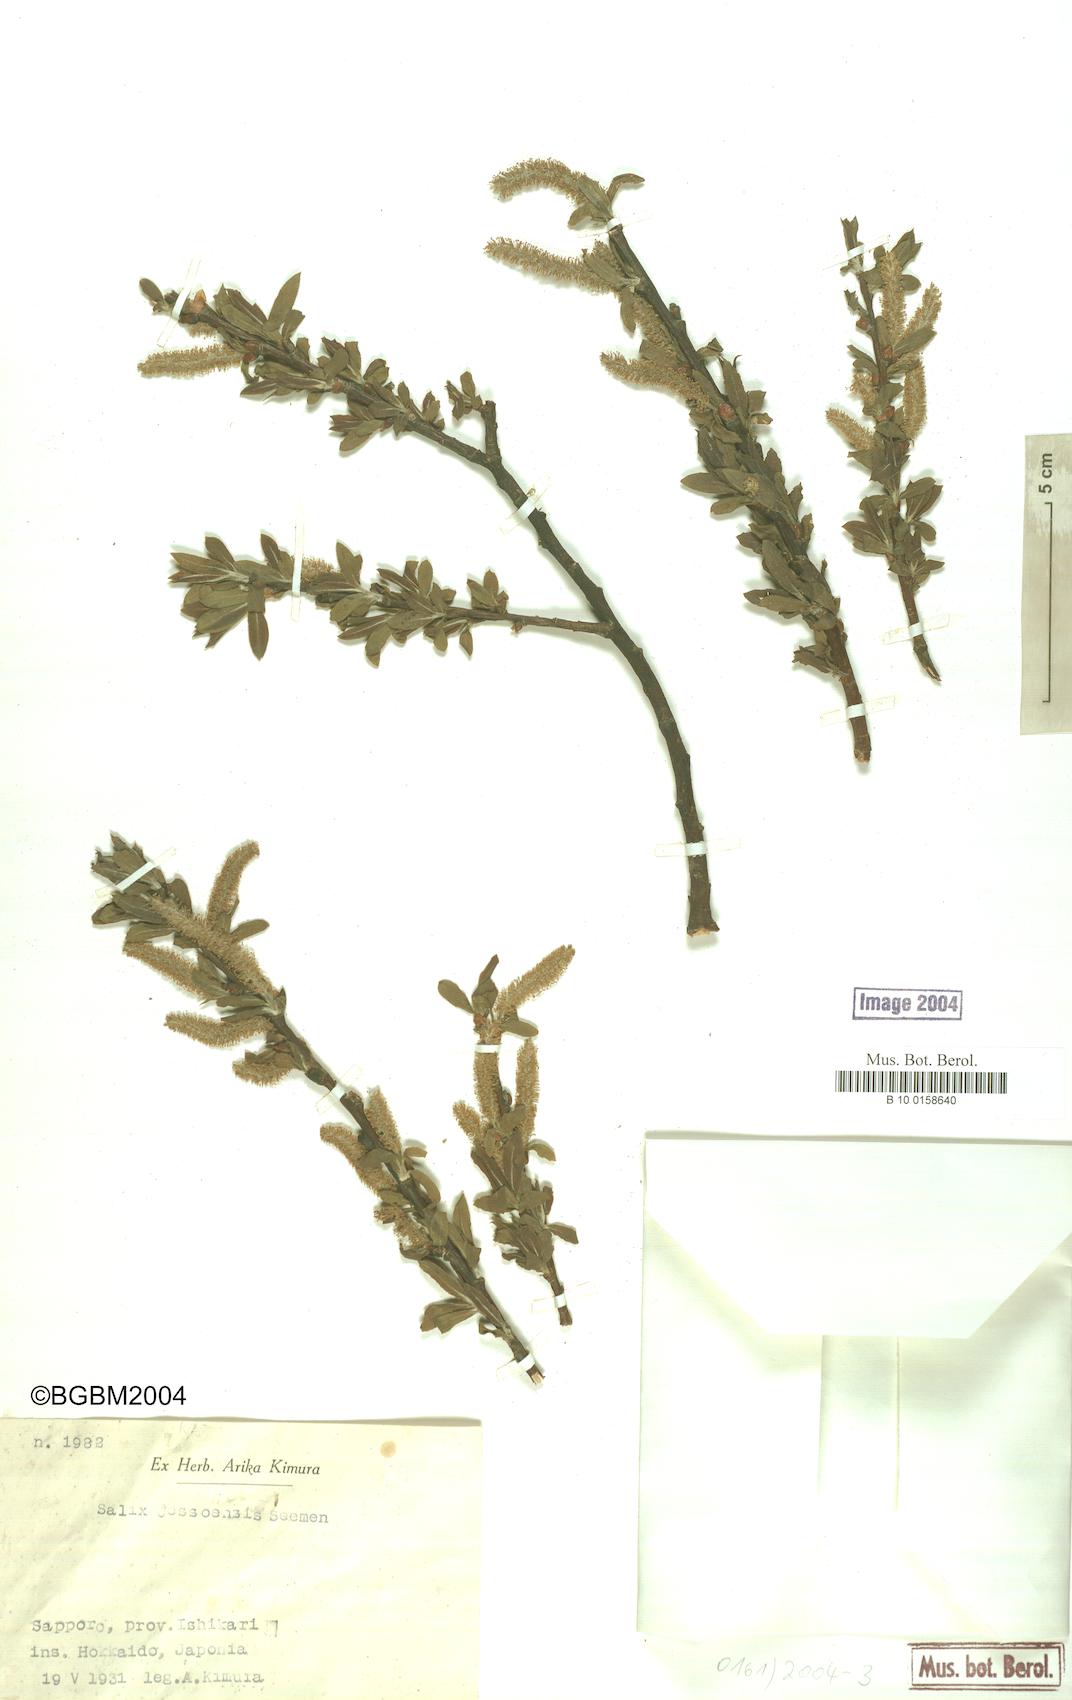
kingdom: Plantae
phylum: Tracheophyta
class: Magnoliopsida
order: Malpighiales
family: Salicaceae
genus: Salix
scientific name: Salix jessoensis
